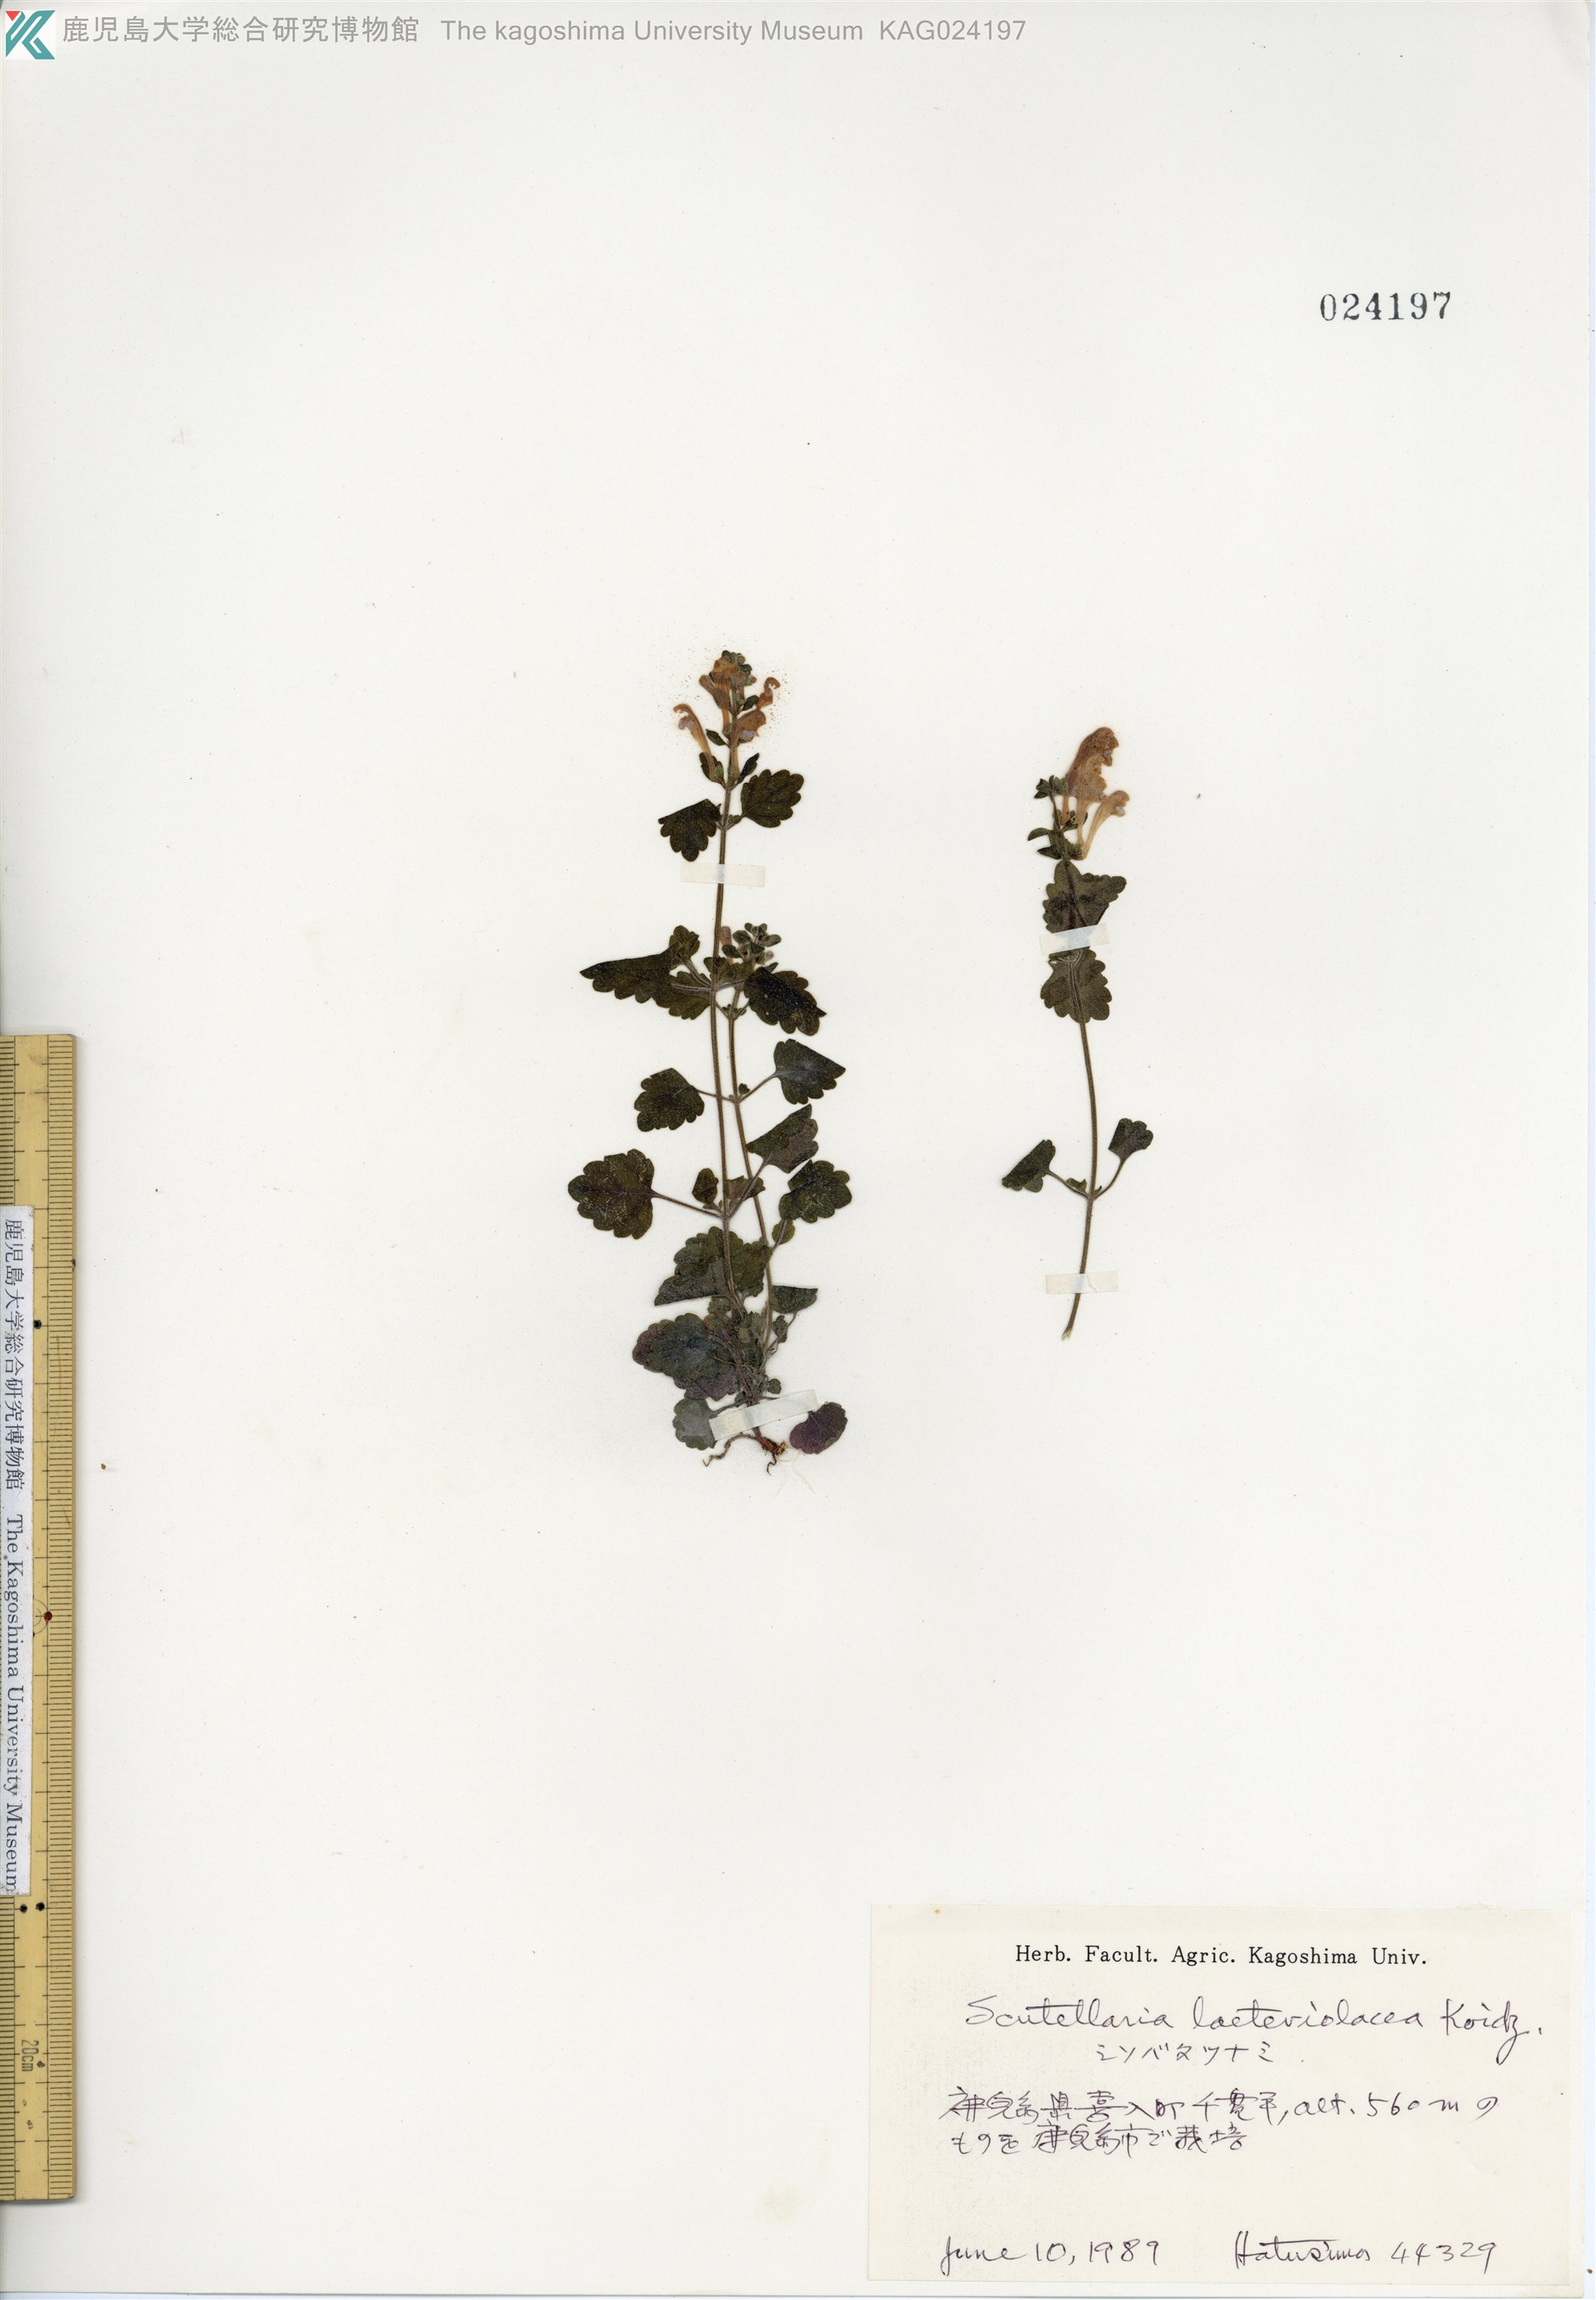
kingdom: Plantae
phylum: Tracheophyta
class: Magnoliopsida
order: Lamiales
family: Lamiaceae
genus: Scutellaria
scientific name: Scutellaria laeteviolacea
